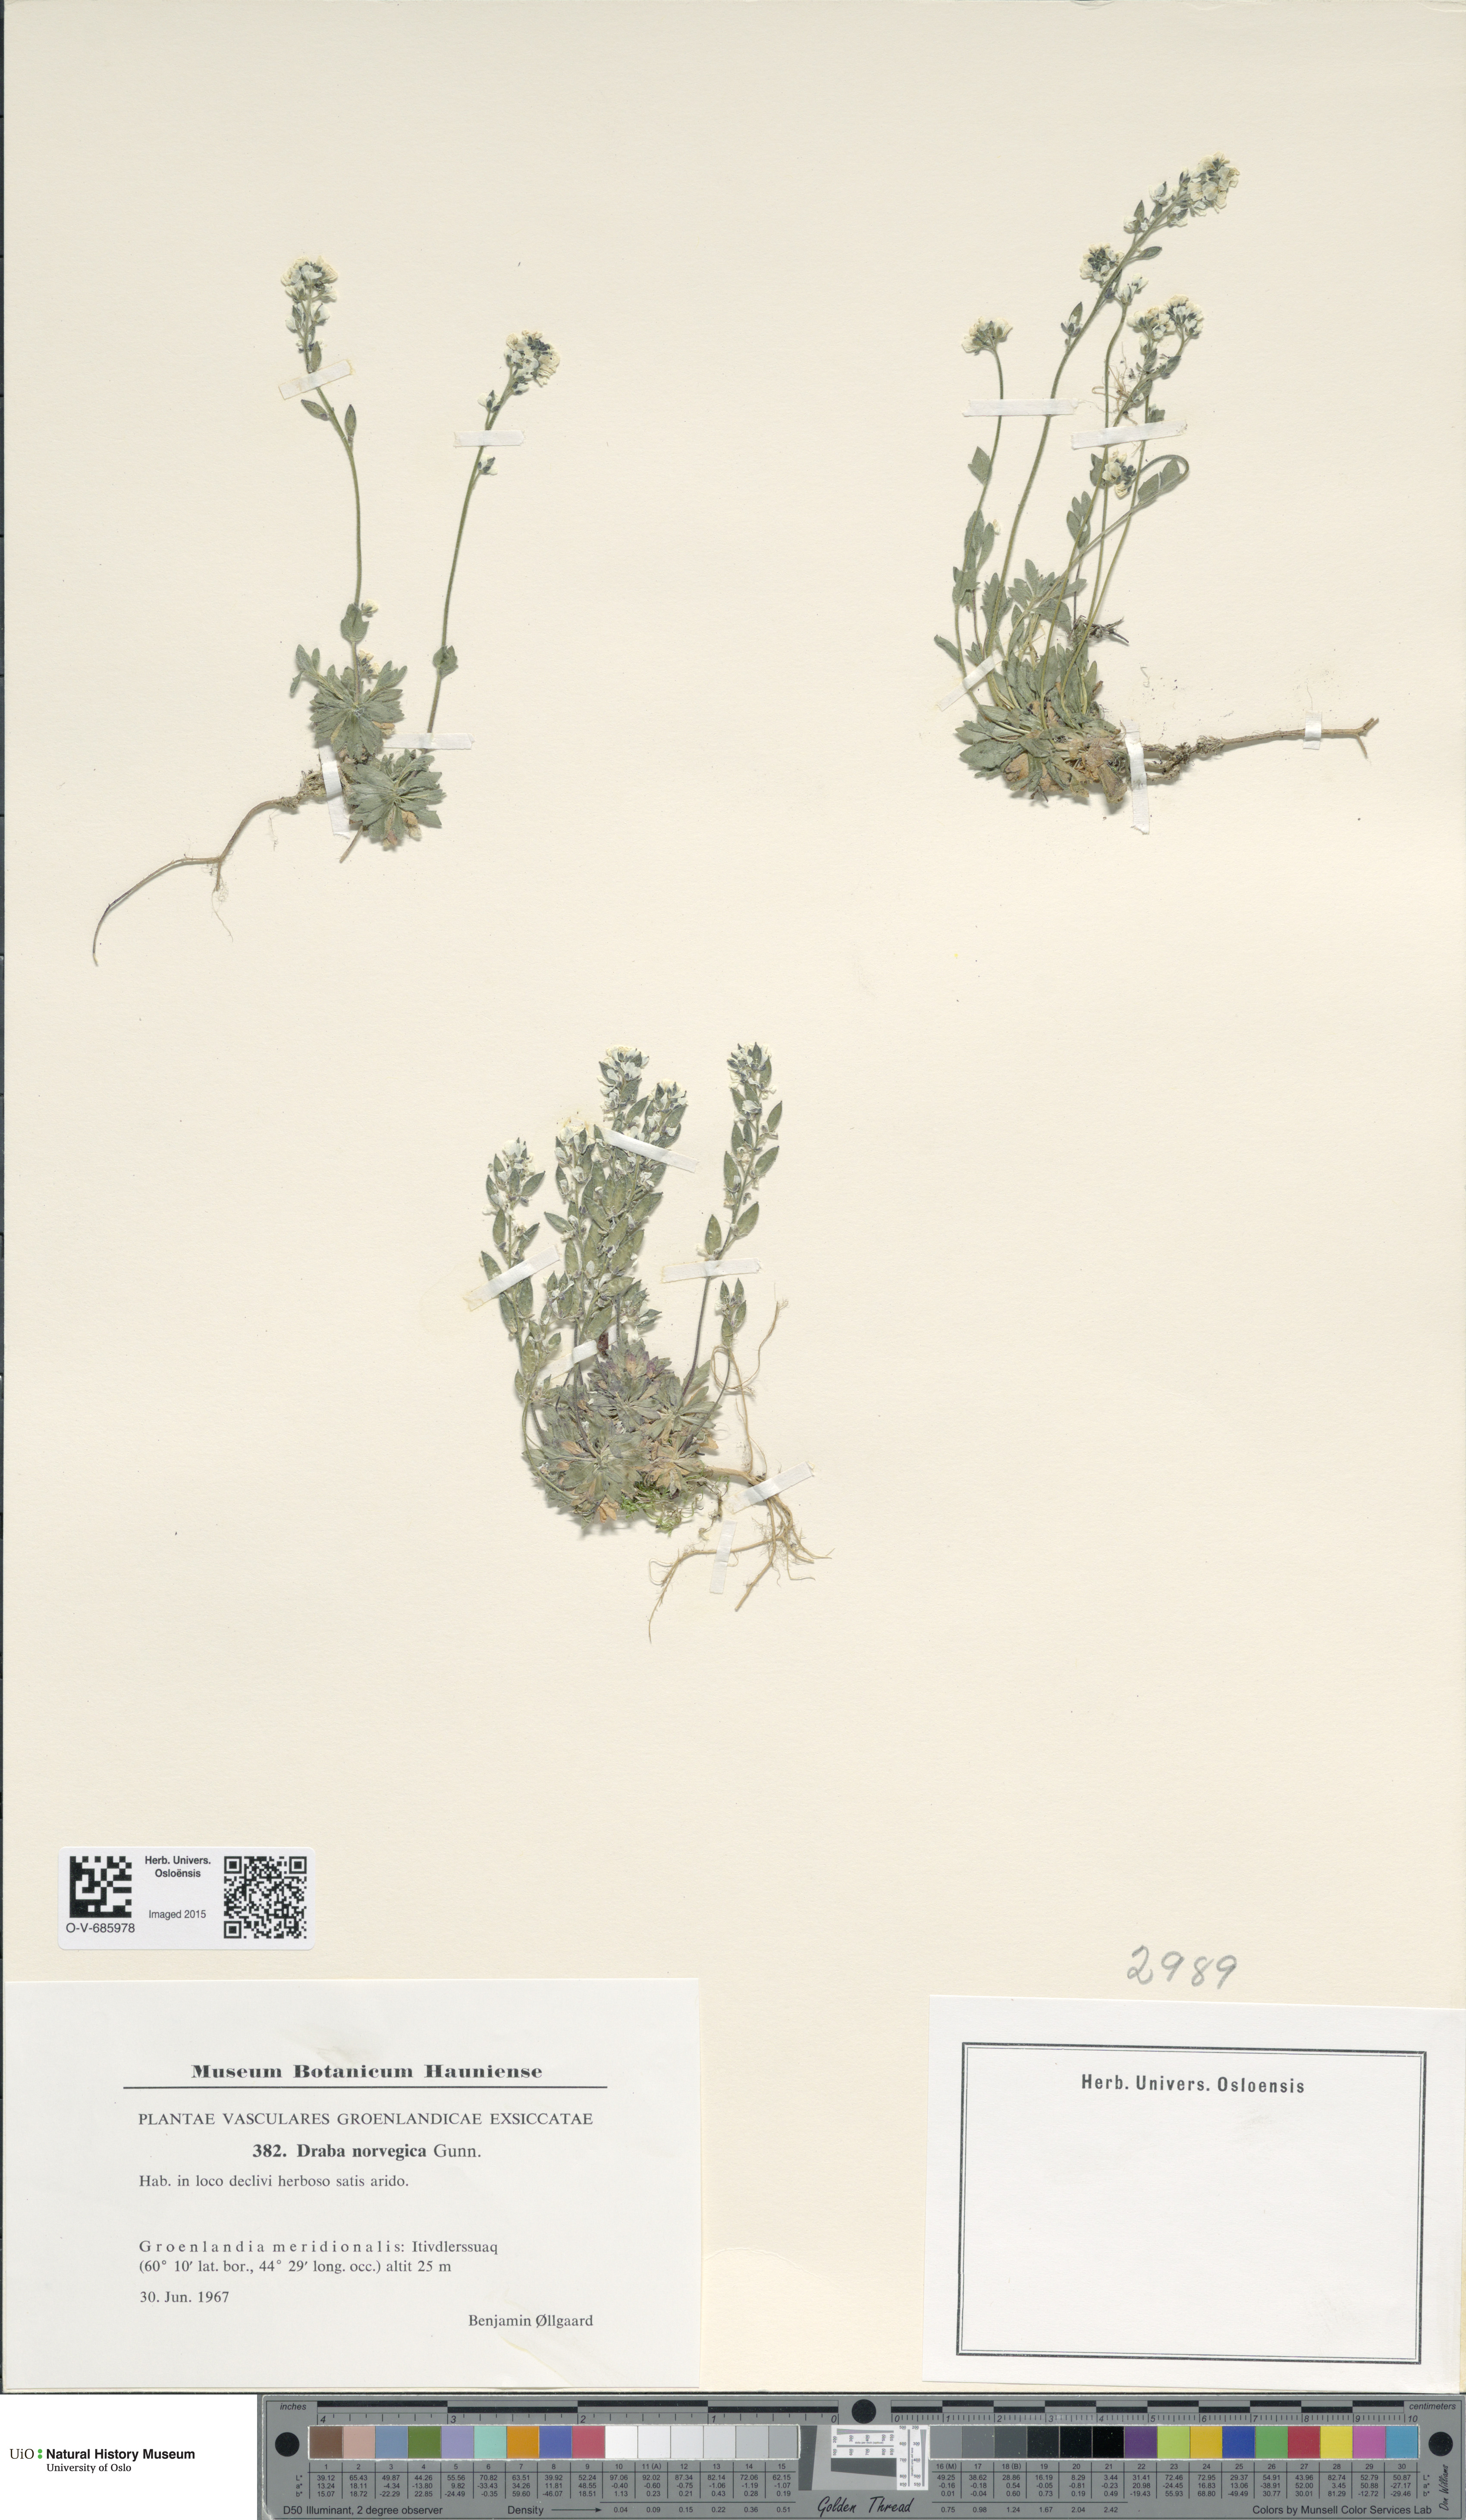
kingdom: Plantae
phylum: Tracheophyta
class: Magnoliopsida
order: Brassicales
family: Brassicaceae
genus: Draba
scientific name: Draba norvegica
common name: Rock whitlowgrass
